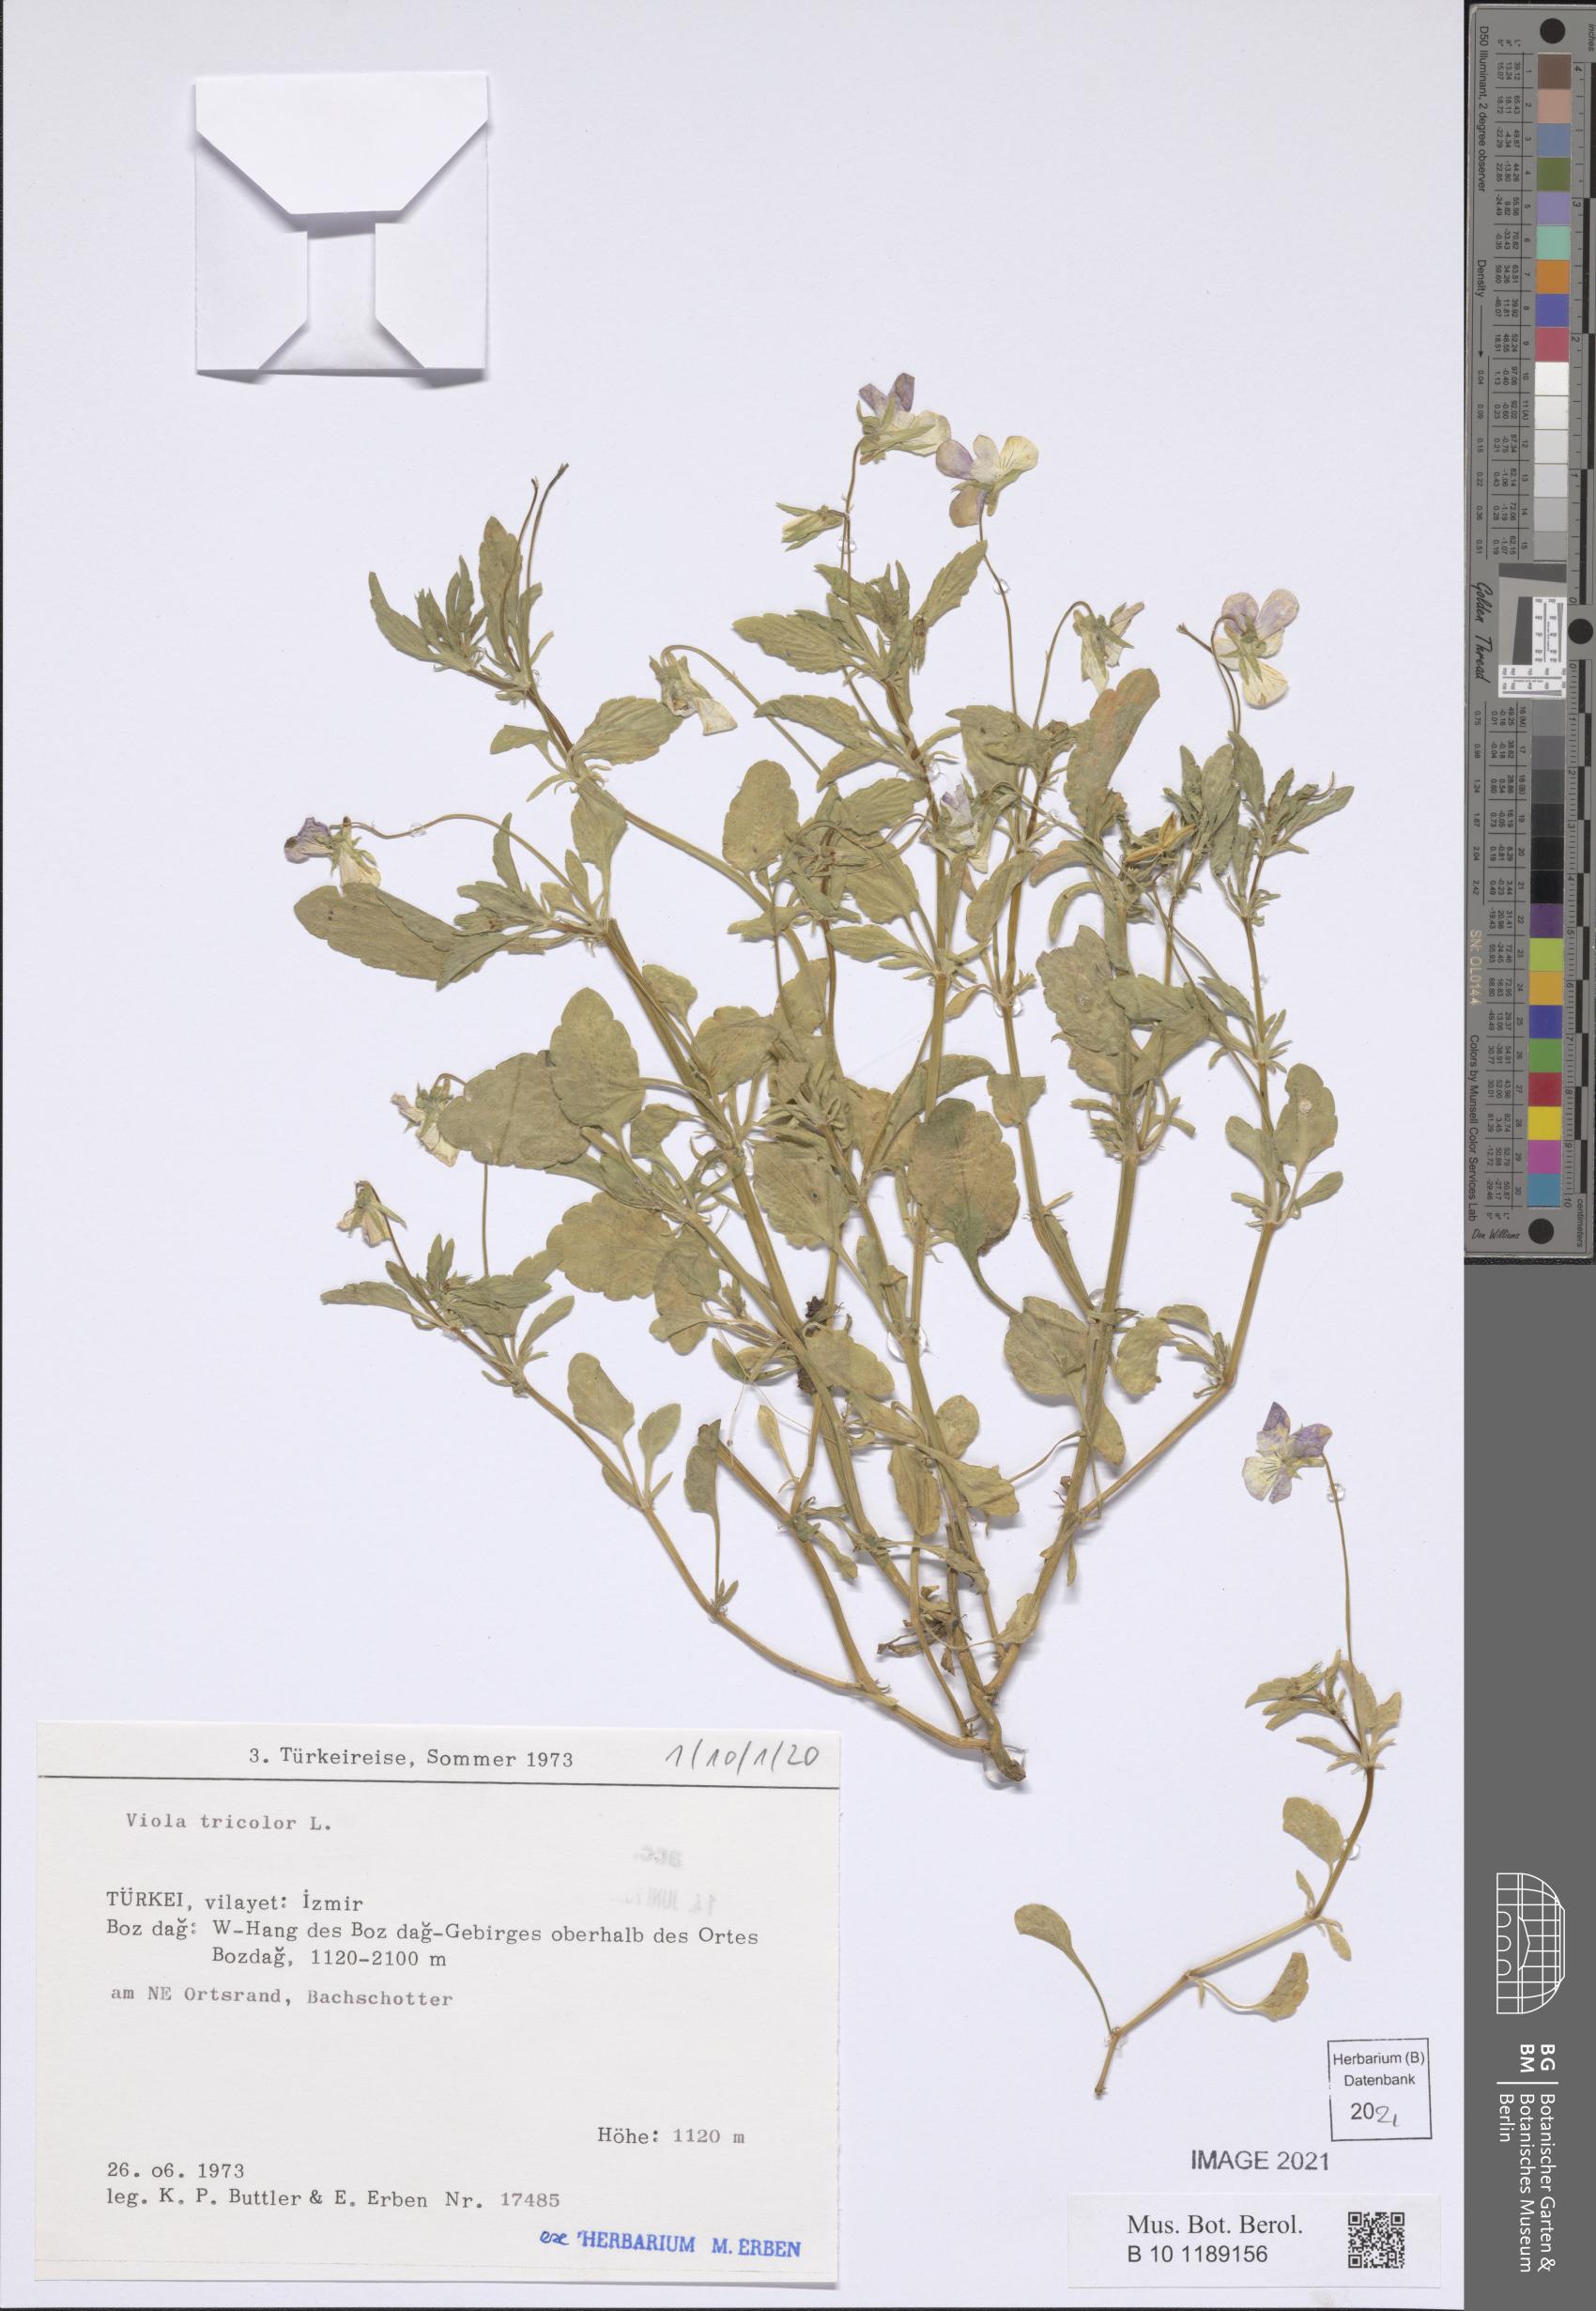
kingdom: Plantae
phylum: Tracheophyta
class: Magnoliopsida
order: Malpighiales
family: Violaceae
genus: Viola
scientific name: Viola tricolor
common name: Pansy
